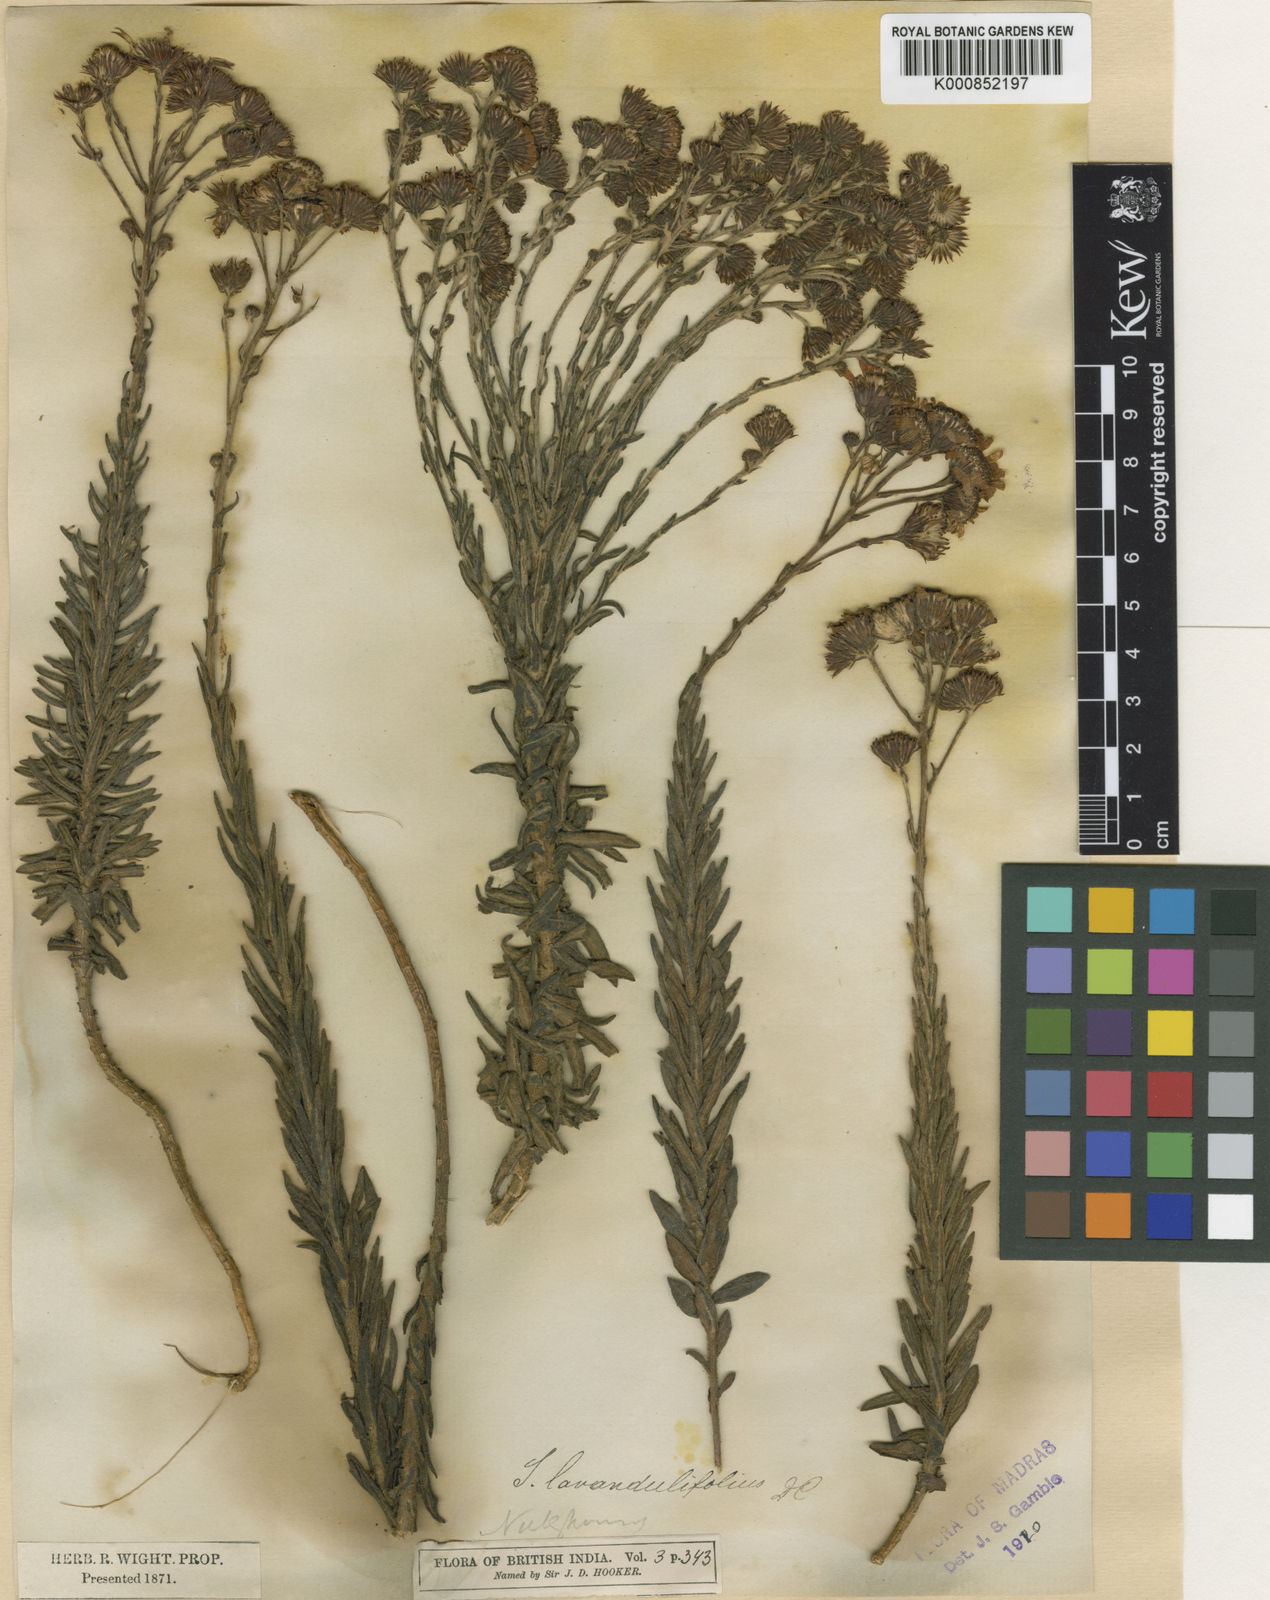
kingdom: Plantae
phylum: Tracheophyta
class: Magnoliopsida
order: Asterales
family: Asteraceae
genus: Senecio
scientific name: Senecio
